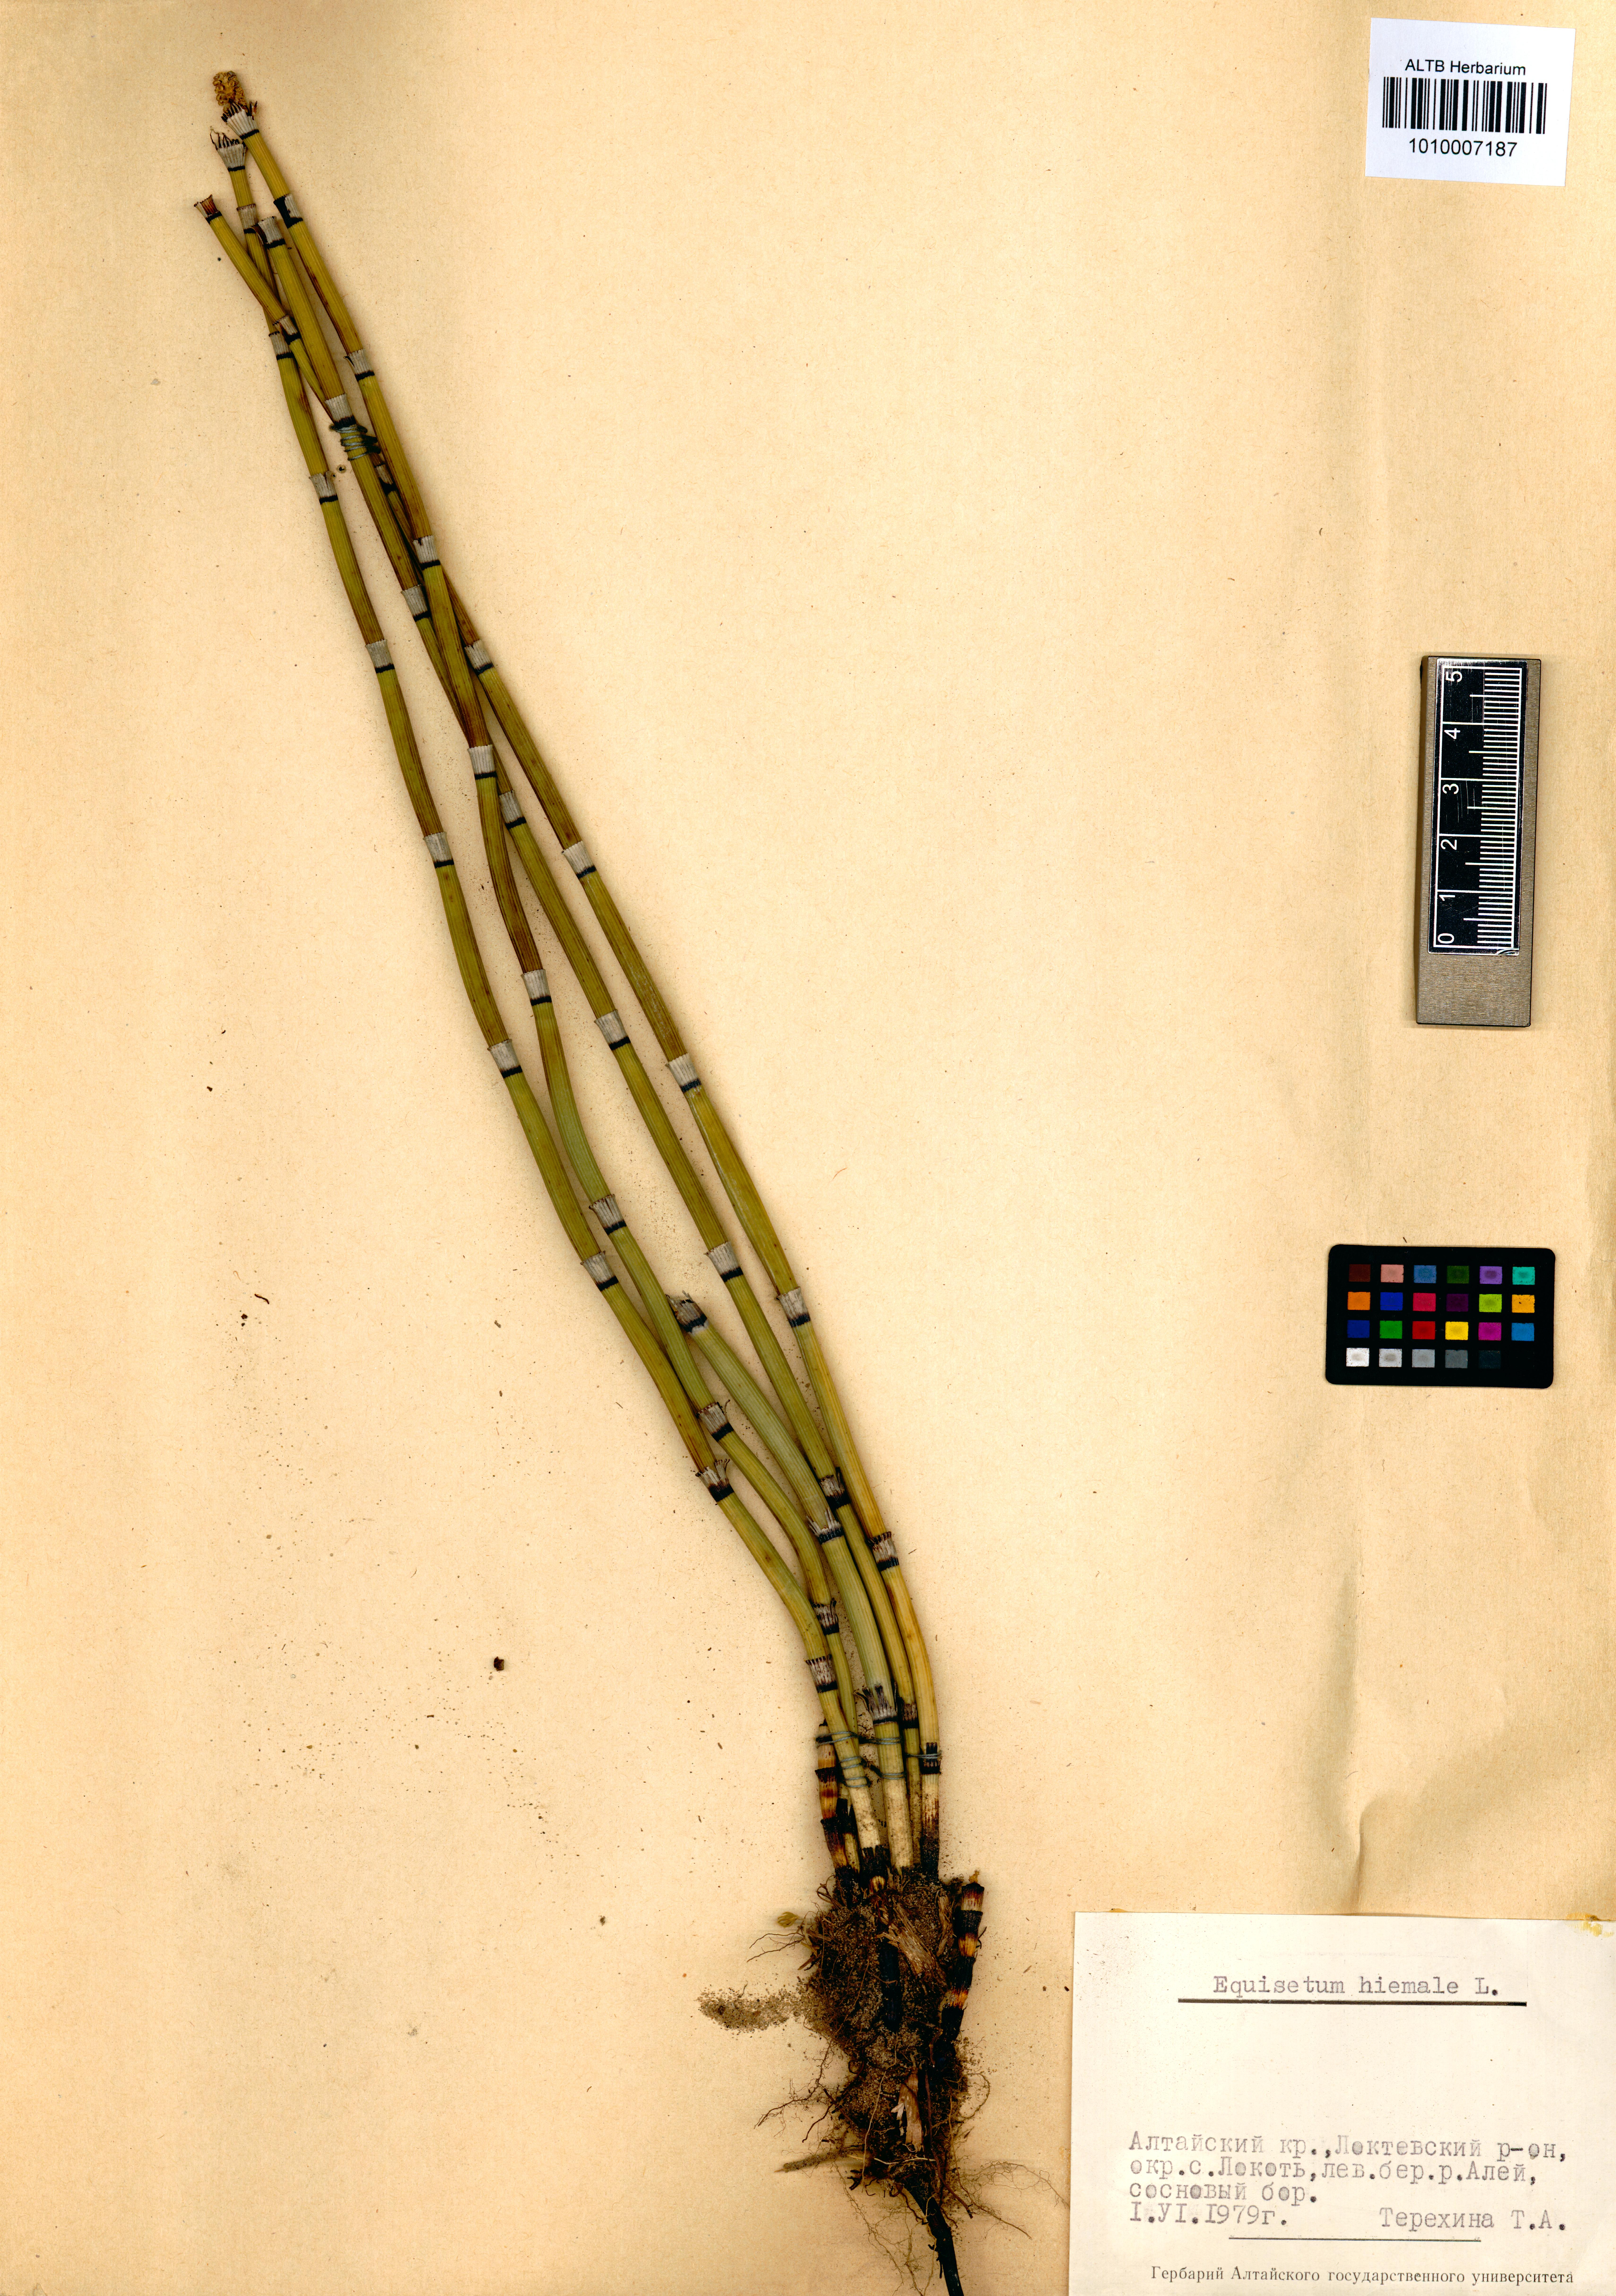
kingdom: Plantae
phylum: Tracheophyta
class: Polypodiopsida
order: Equisetales
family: Equisetaceae
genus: Equisetum
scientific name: Equisetum hyemale
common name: Rough horsetail
